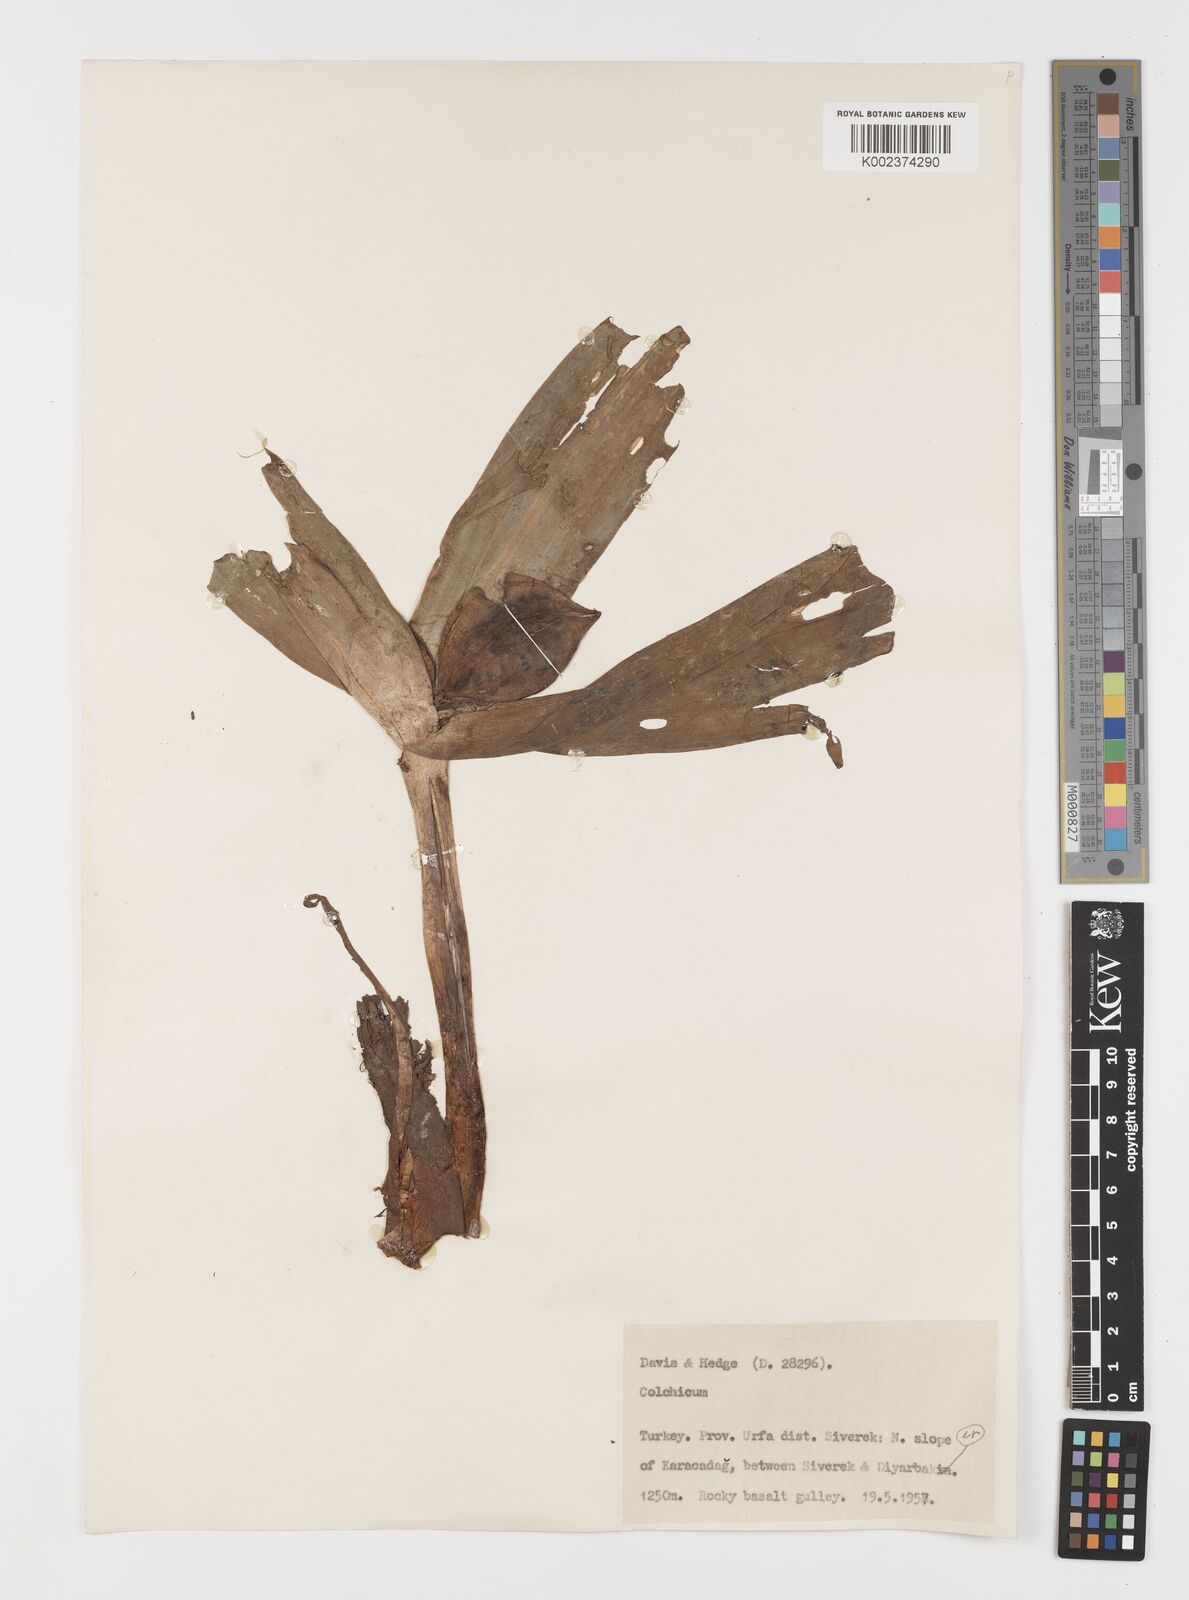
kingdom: Plantae
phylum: Tracheophyta
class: Liliopsida
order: Liliales
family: Colchicaceae
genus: Colchicum
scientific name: Colchicum
